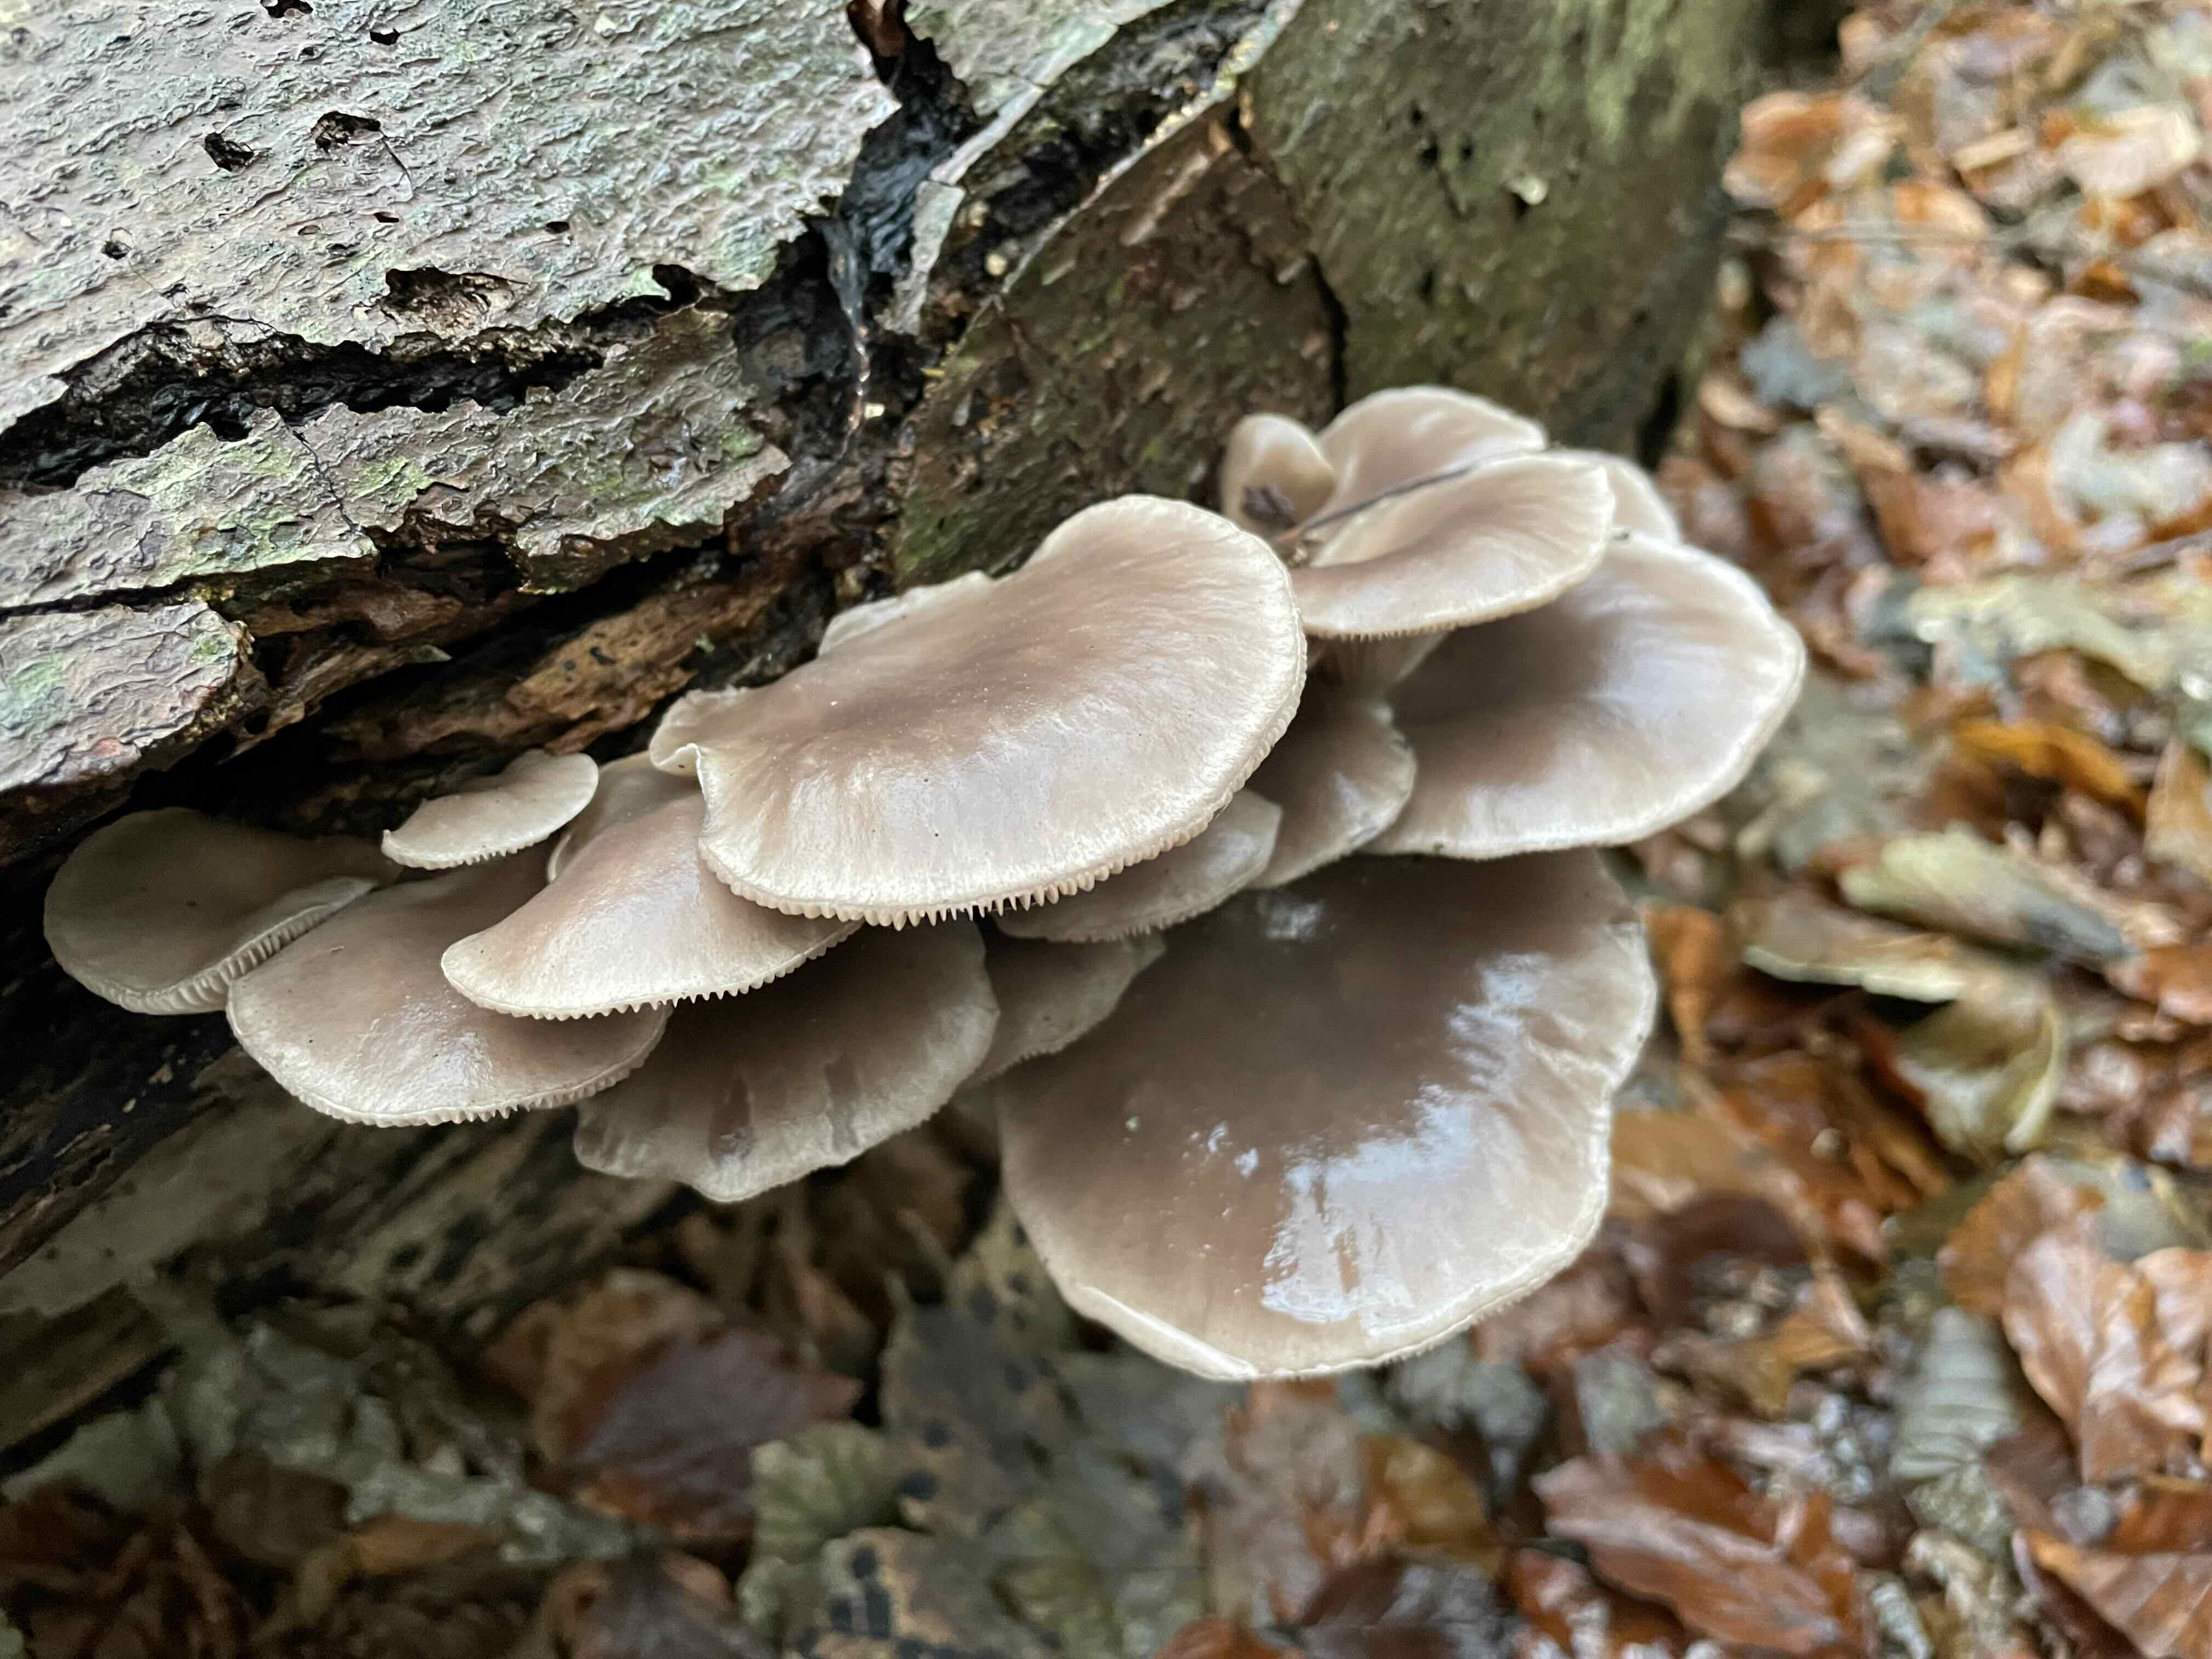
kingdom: Fungi
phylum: Basidiomycota
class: Agaricomycetes
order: Agaricales
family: Pleurotaceae
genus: Pleurotus
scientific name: Pleurotus ostreatus
